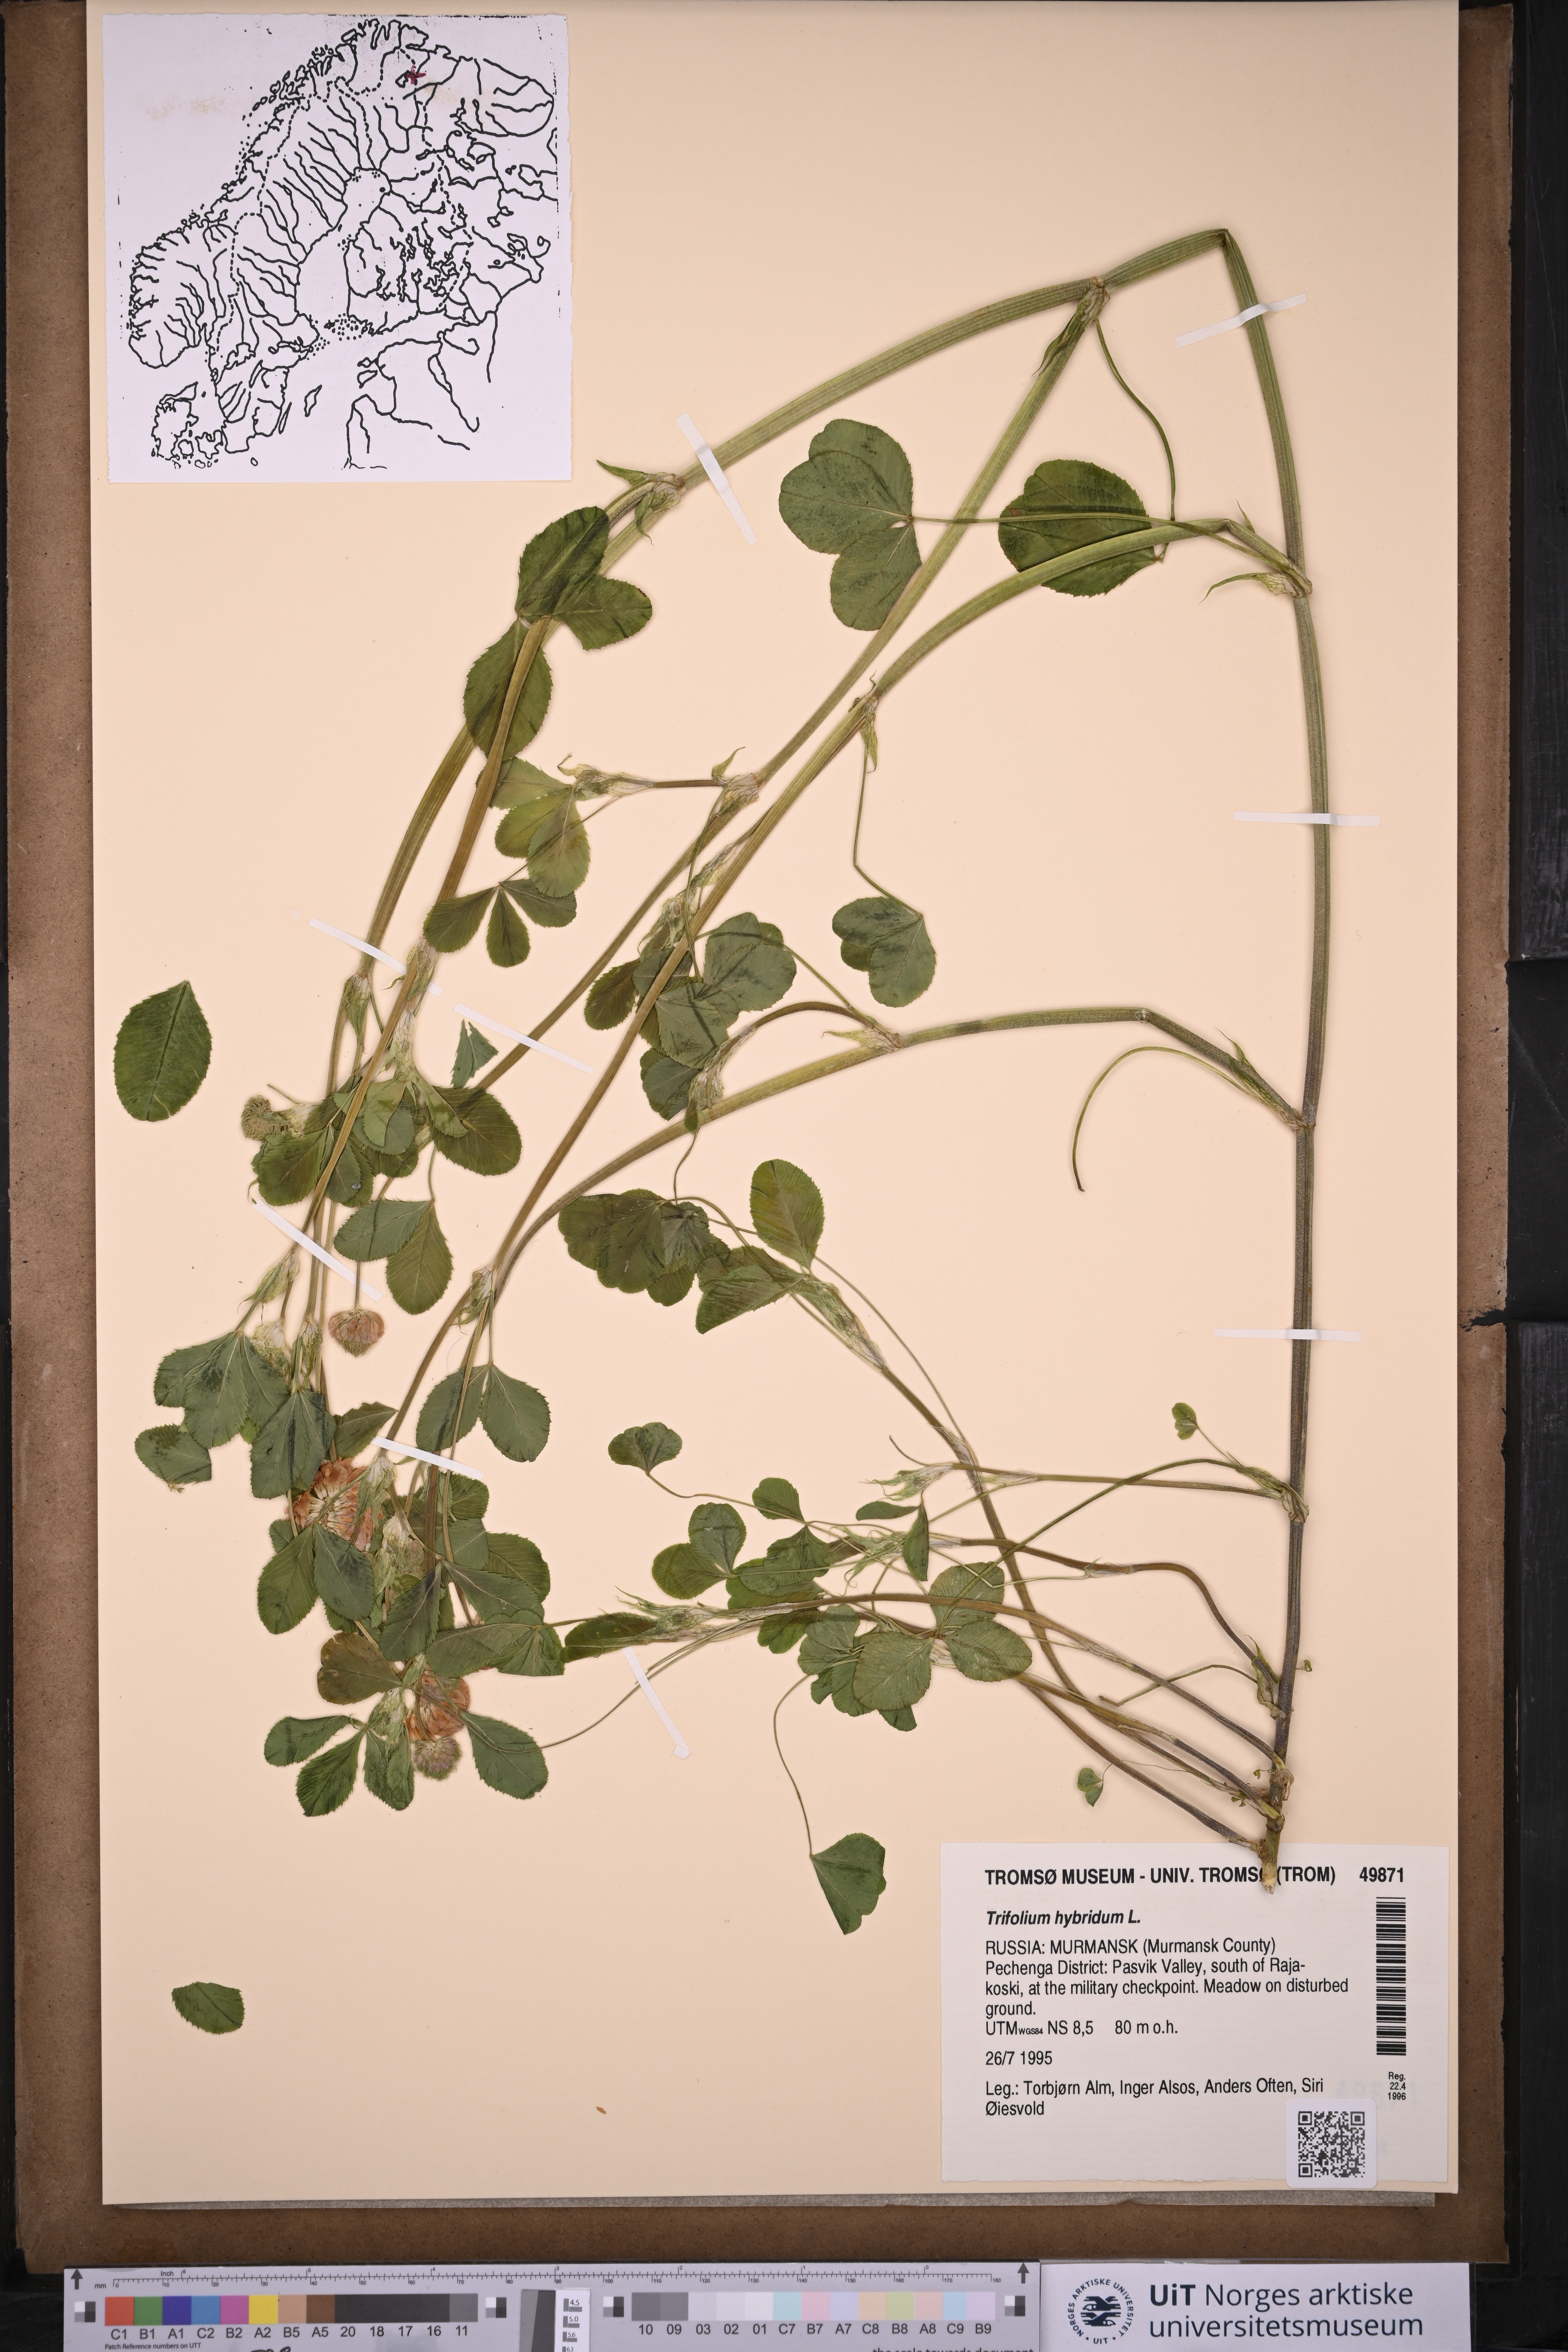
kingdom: Plantae
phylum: Tracheophyta
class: Magnoliopsida
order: Fabales
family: Fabaceae
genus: Trifolium
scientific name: Trifolium hybridum
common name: Alsike clover
